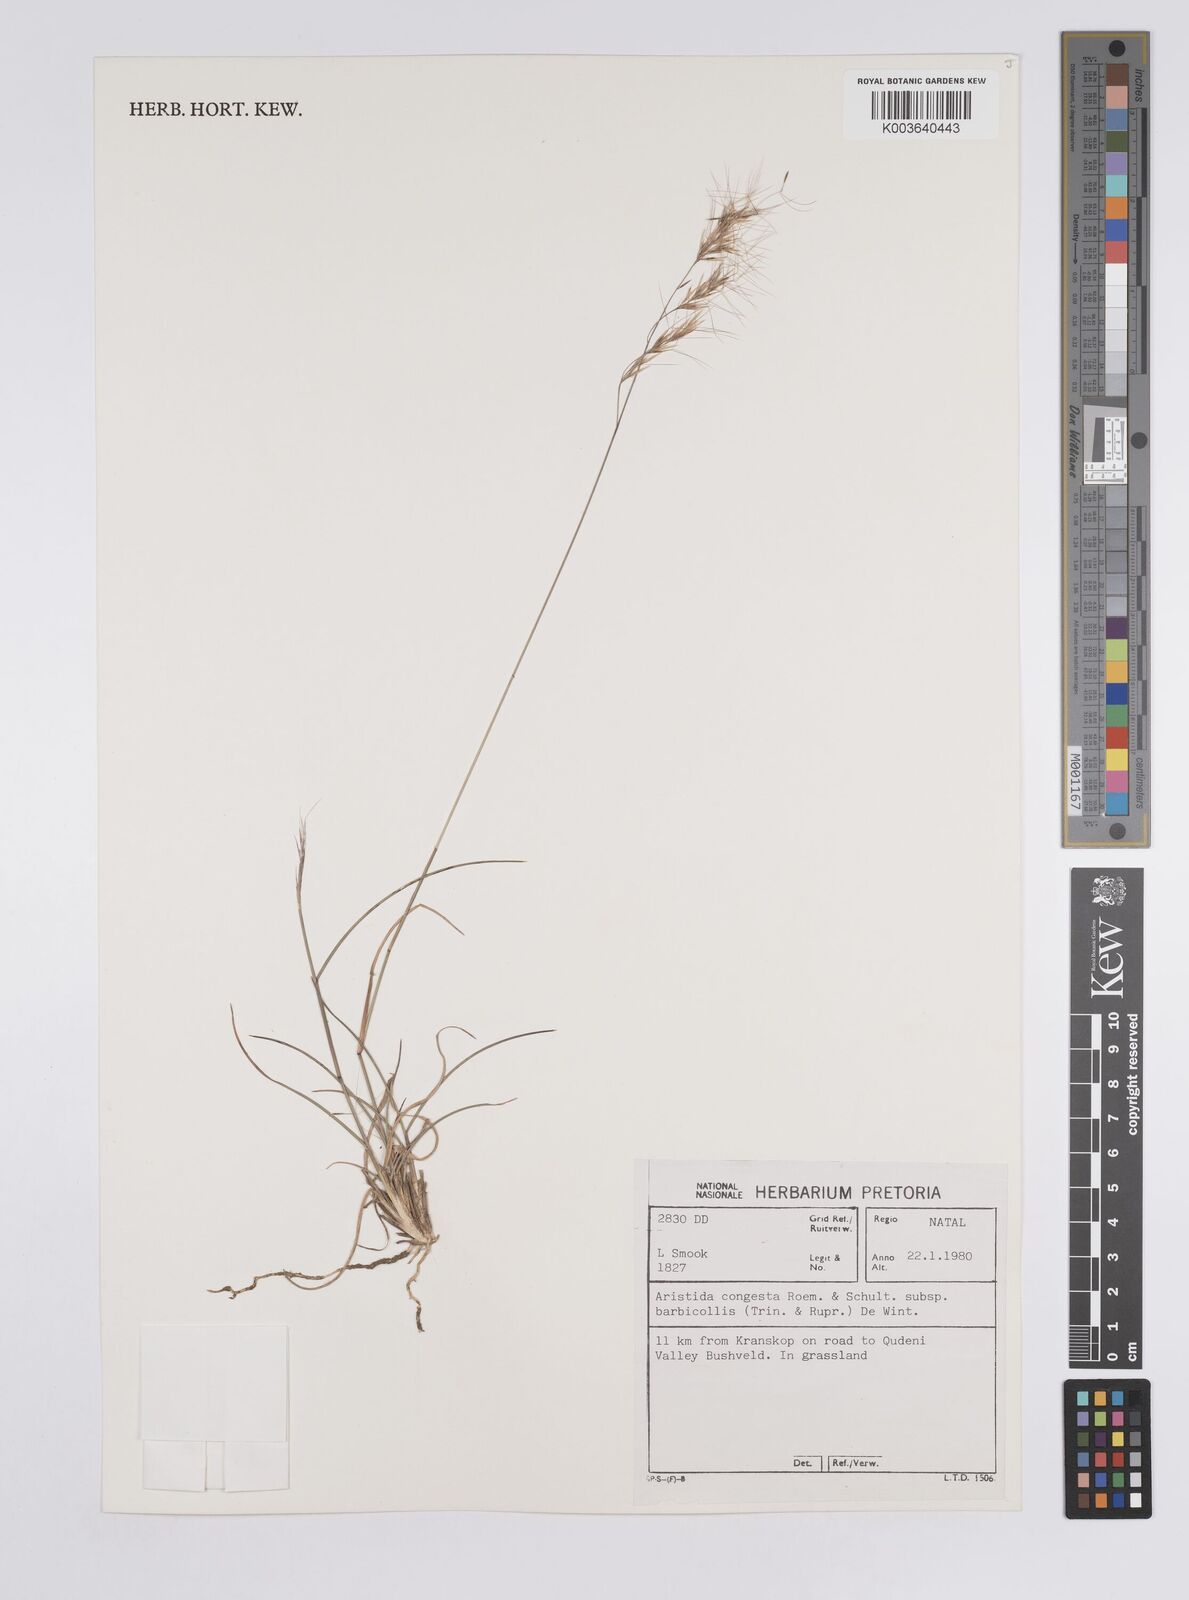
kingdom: Plantae
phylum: Tracheophyta
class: Liliopsida
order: Poales
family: Poaceae
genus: Aristida
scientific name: Aristida barbicollis
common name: Spreading prickle grass
